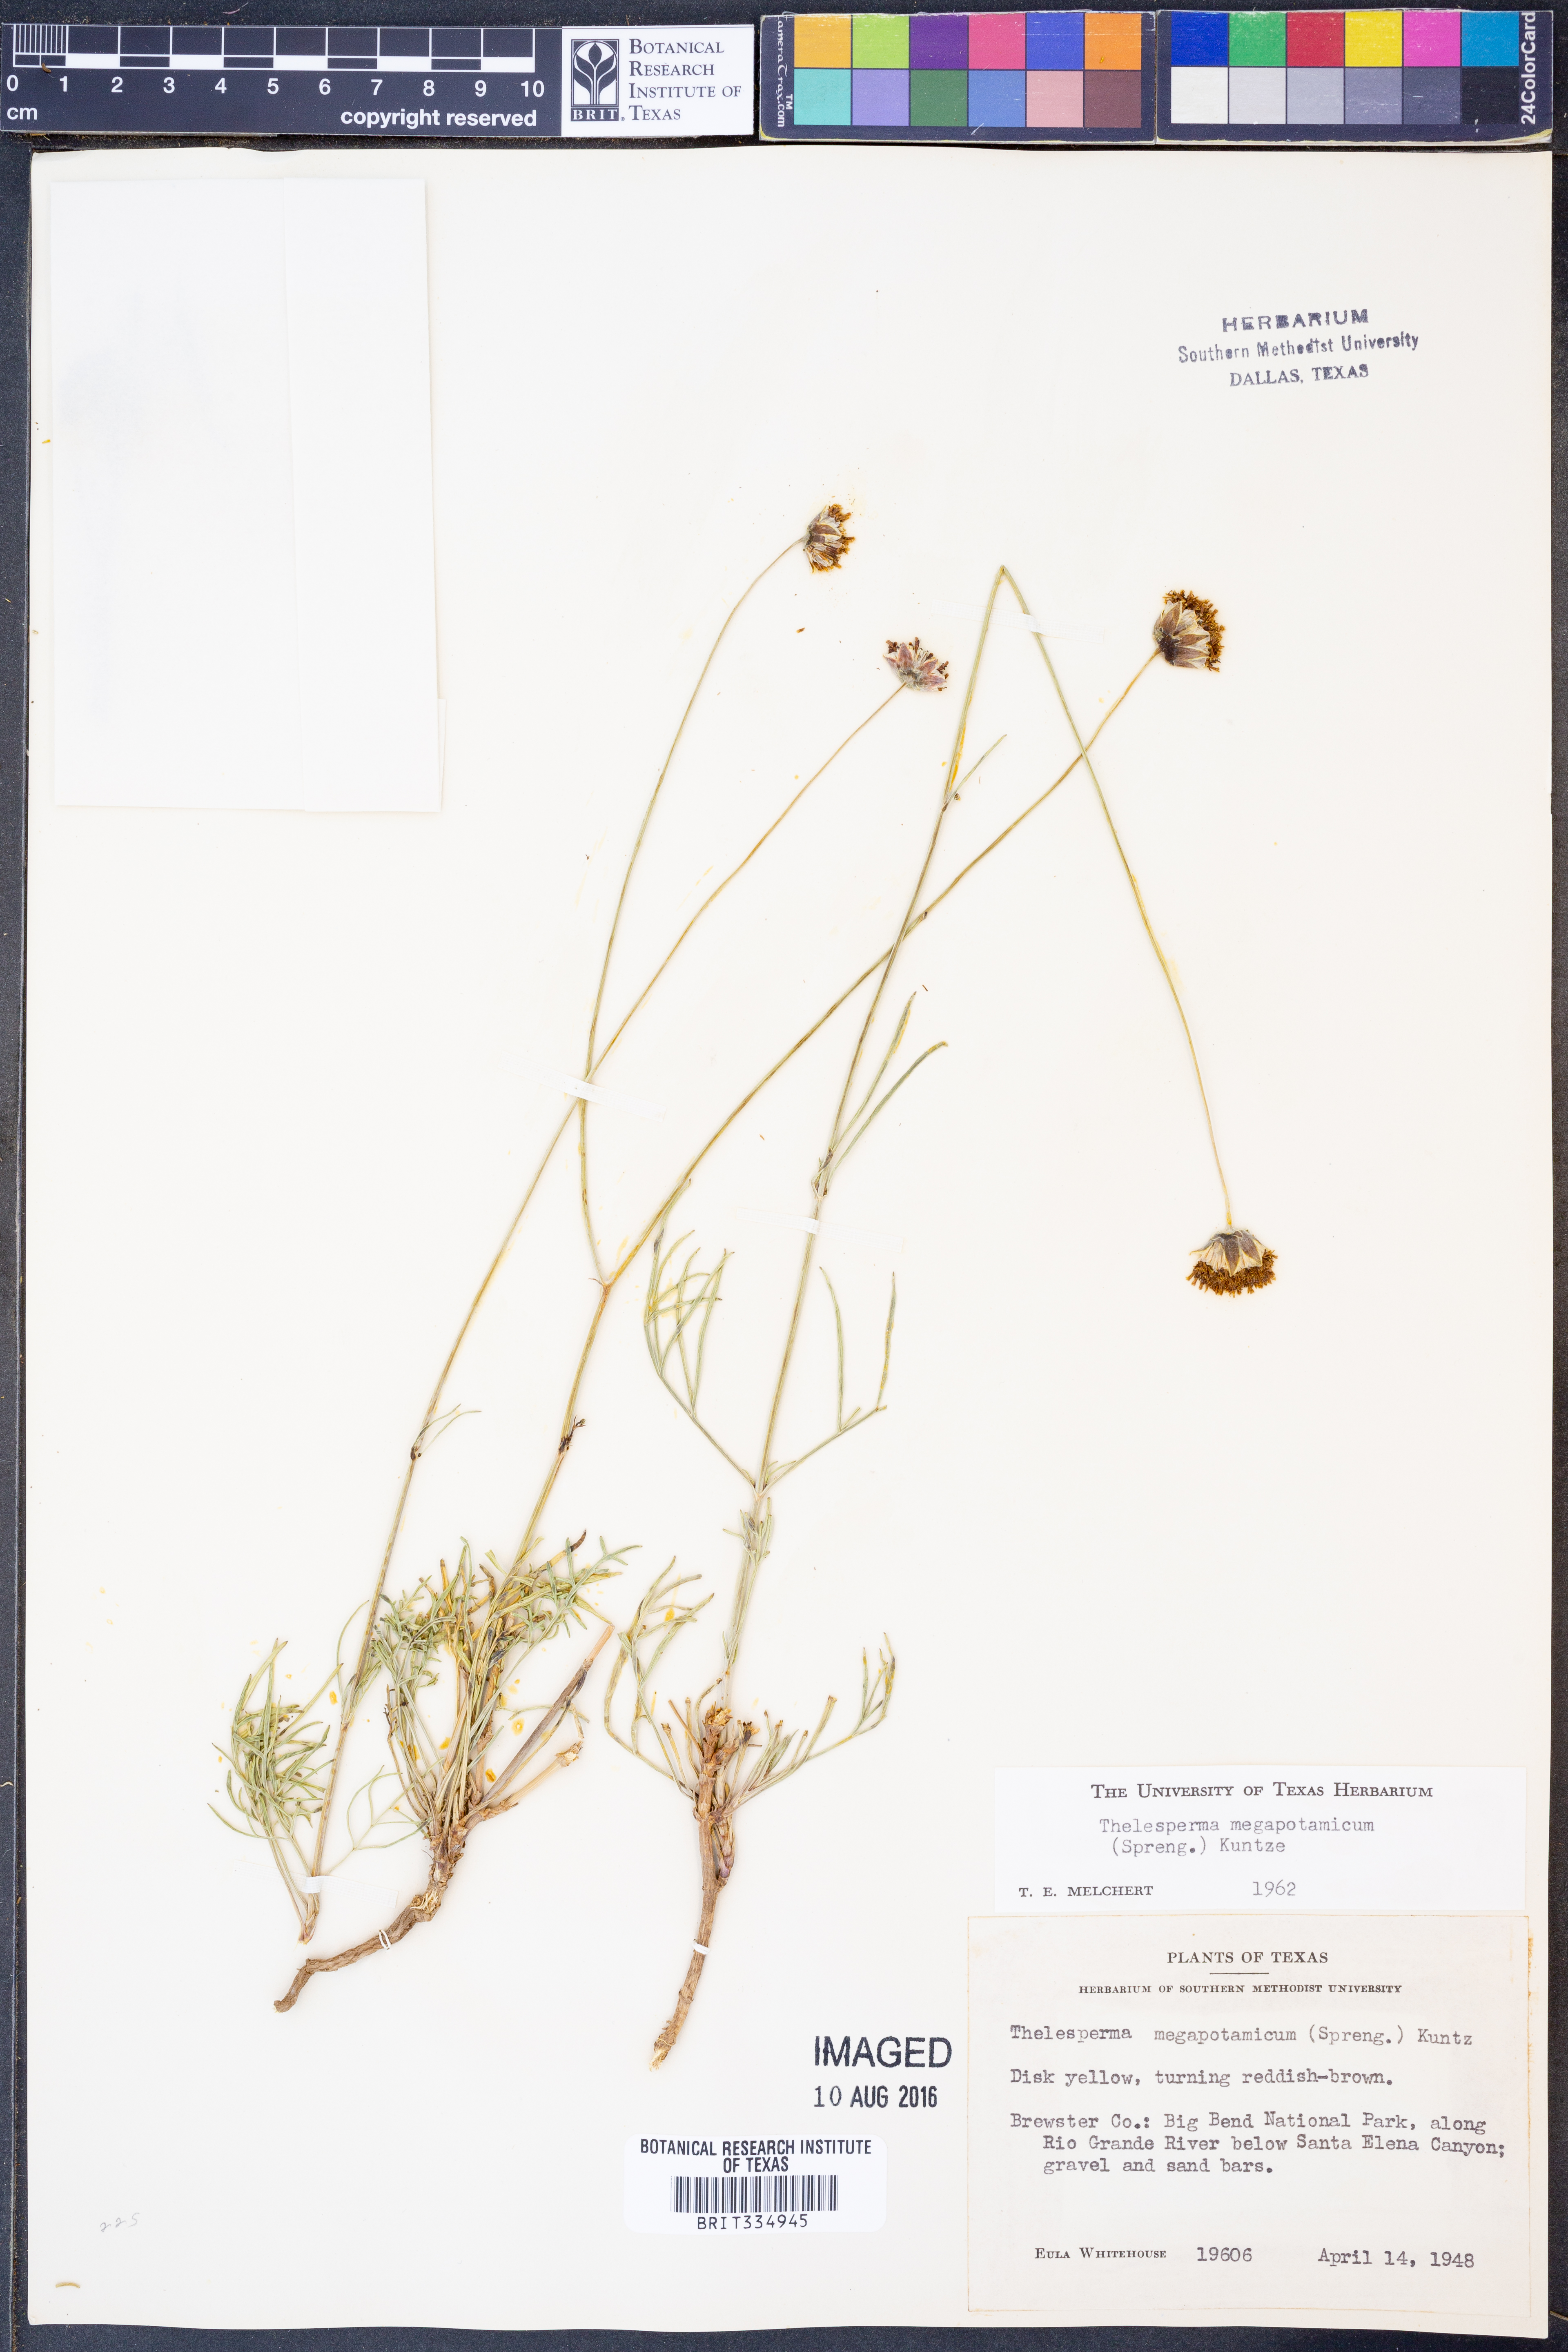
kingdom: Plantae
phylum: Tracheophyta
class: Magnoliopsida
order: Asterales
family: Asteraceae
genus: Thelesperma
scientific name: Thelesperma megapotamicum
